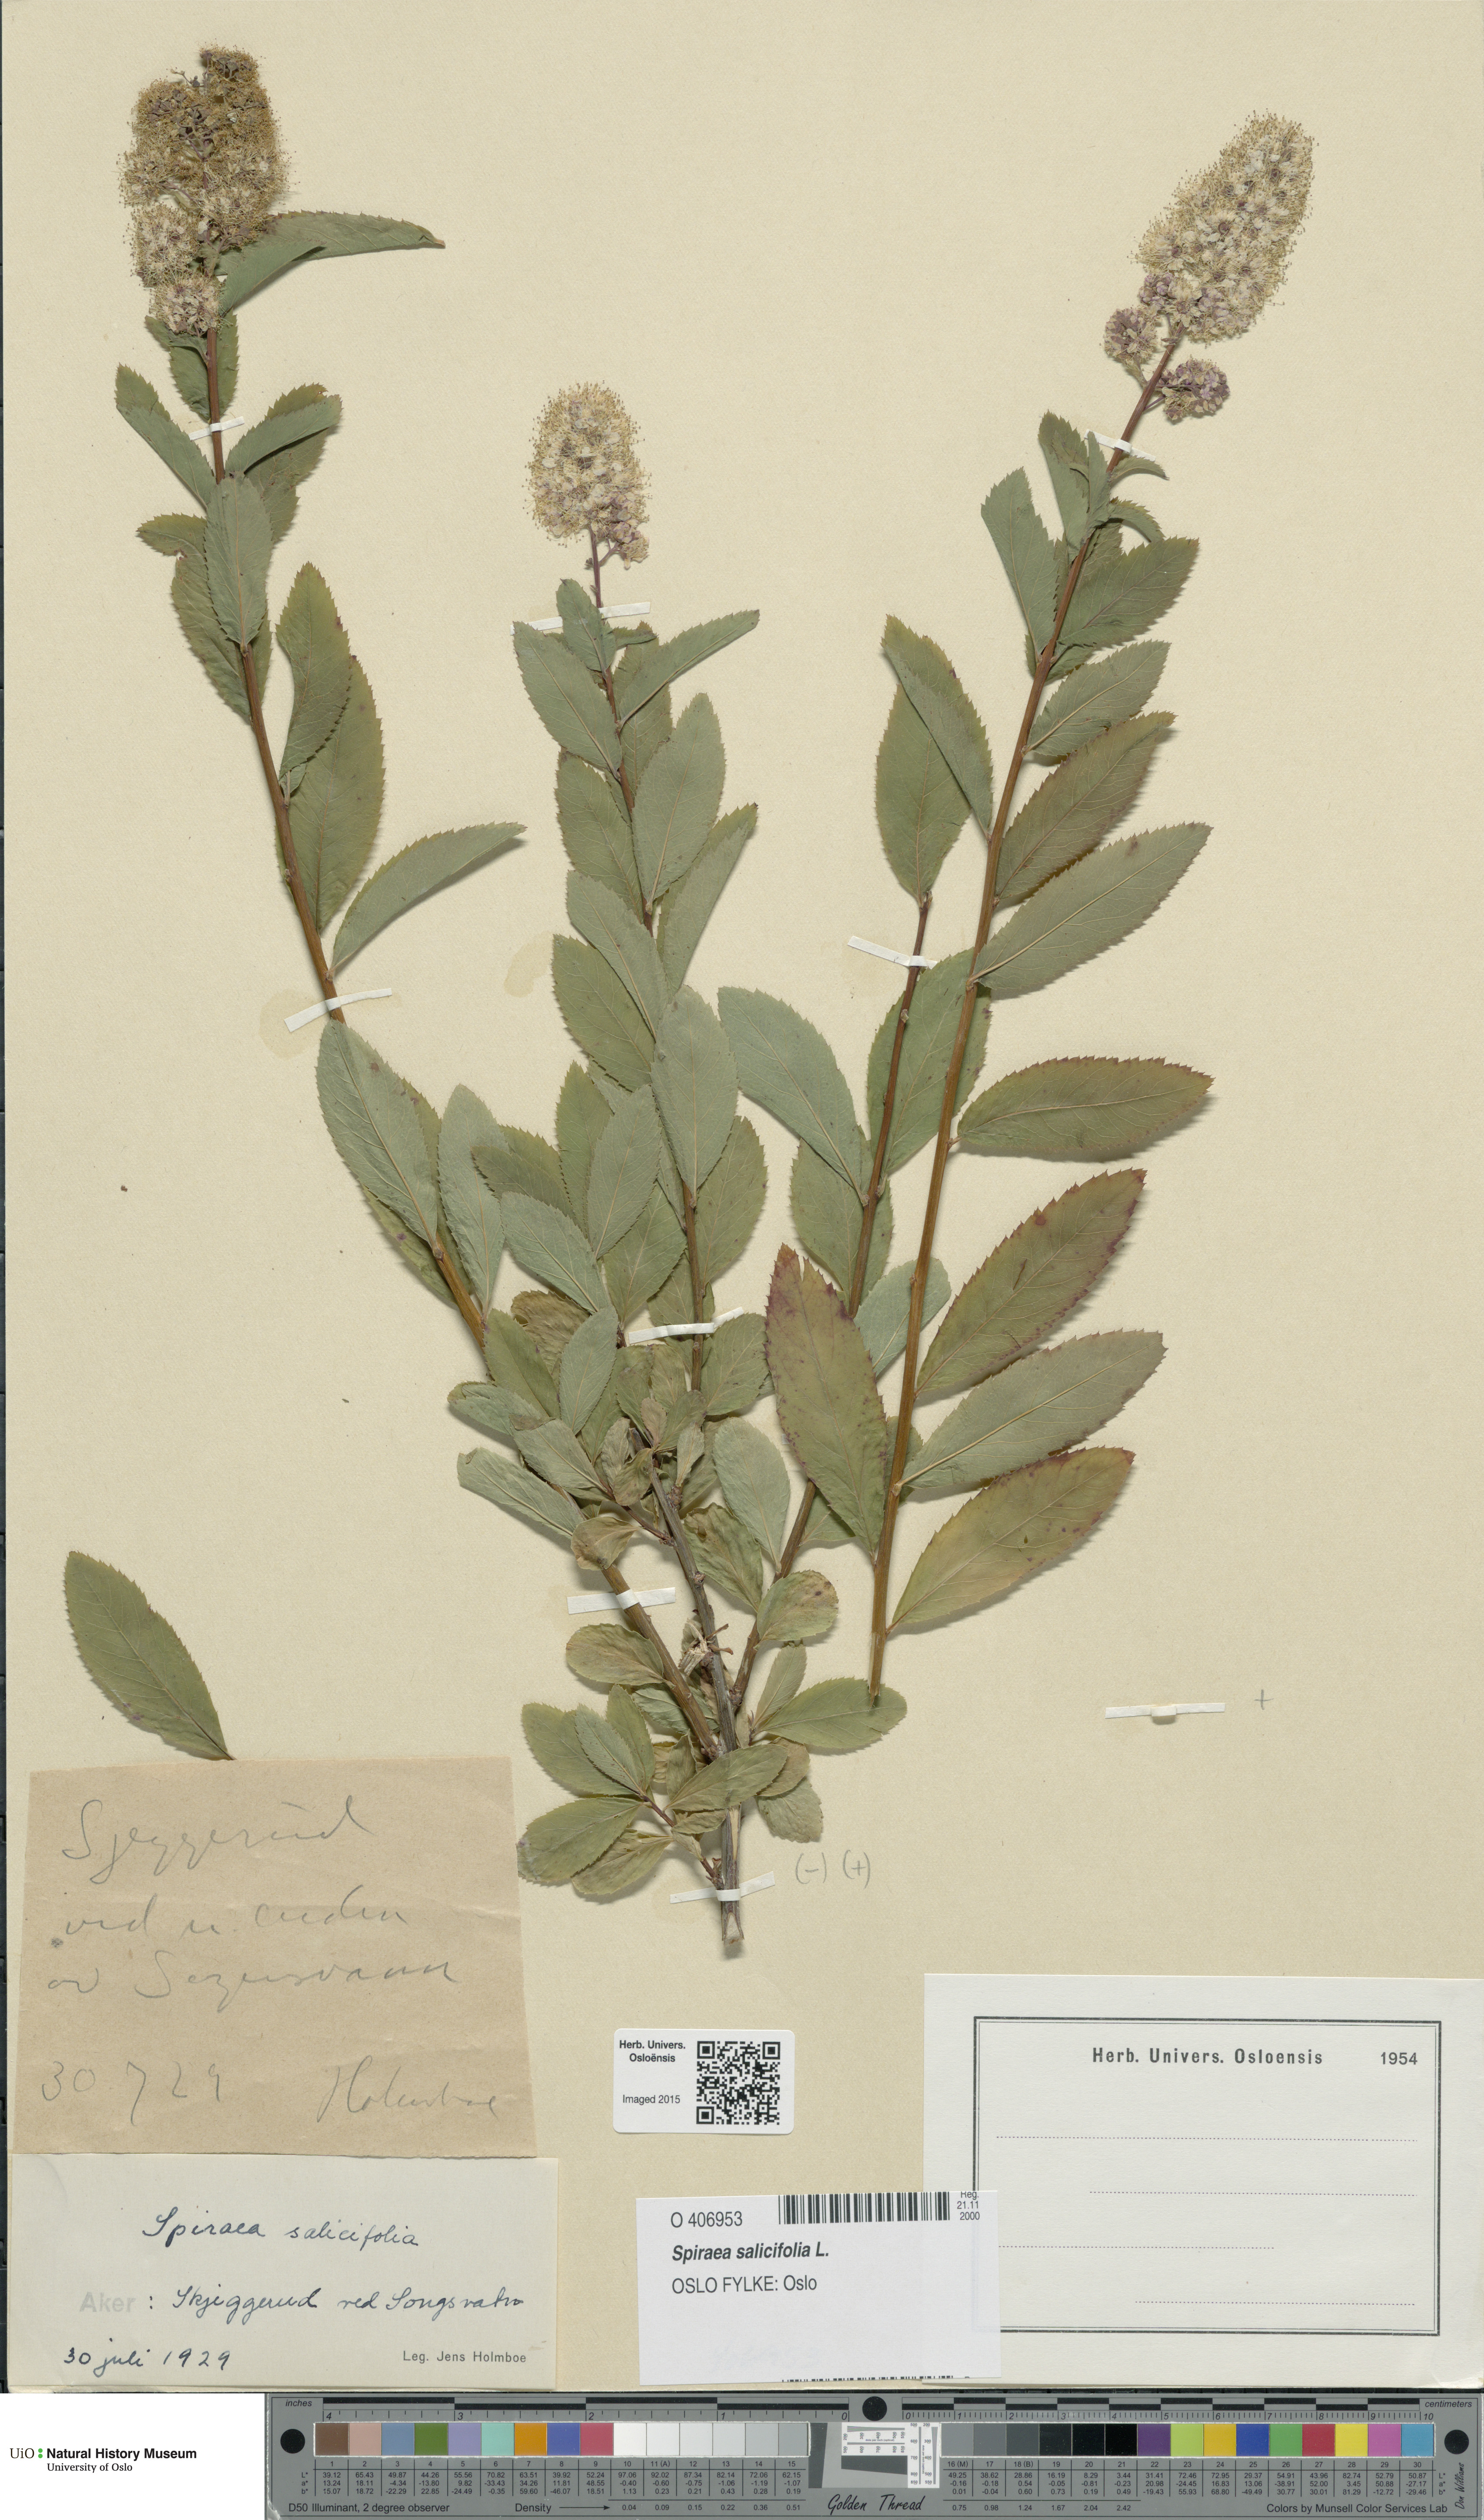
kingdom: Plantae
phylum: Tracheophyta
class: Magnoliopsida
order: Rosales
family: Rosaceae
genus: Spiraea
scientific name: Spiraea salicifolia
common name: Bridewort
